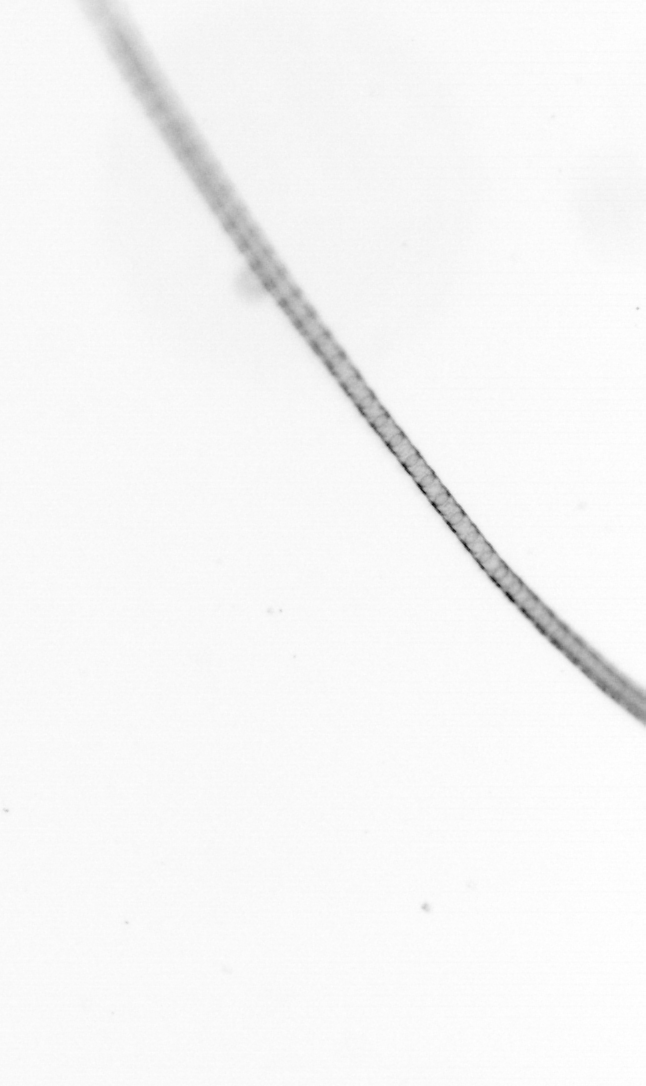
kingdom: Chromista
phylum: Ochrophyta
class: Bacillariophyceae
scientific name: Bacillariophyceae
